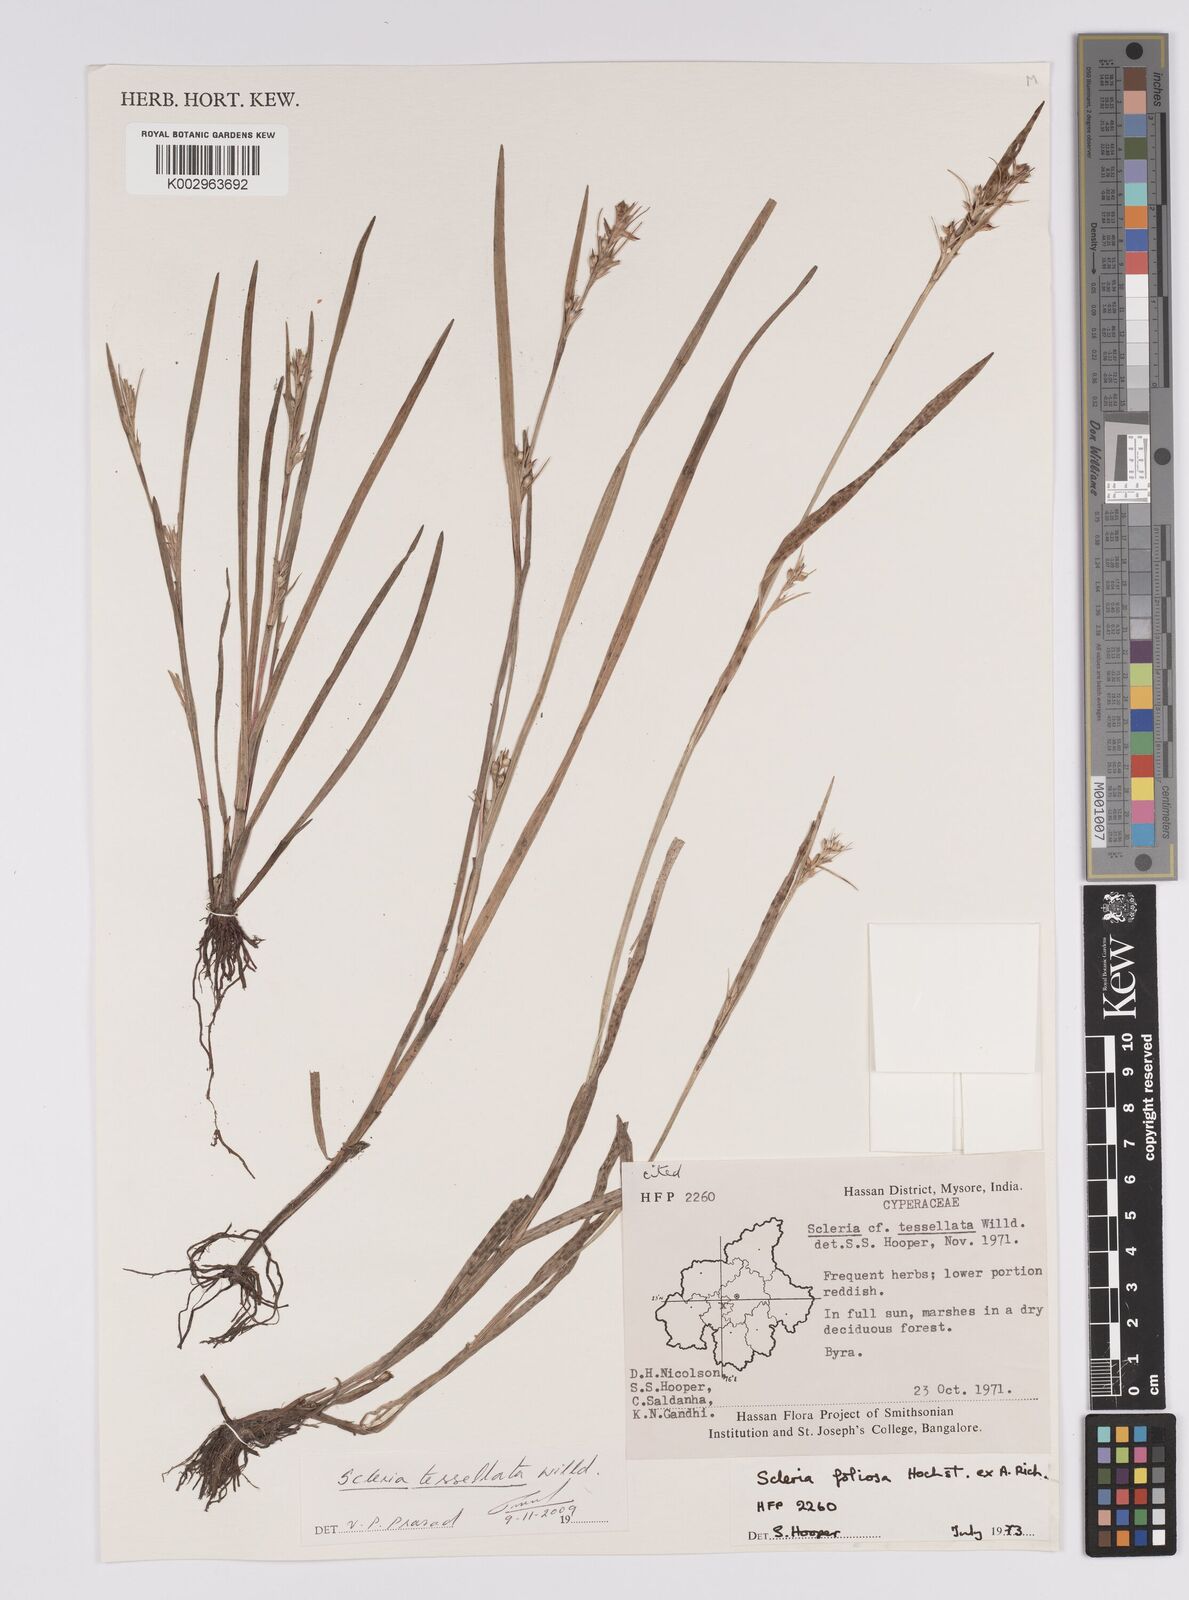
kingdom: Plantae
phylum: Tracheophyta
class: Liliopsida
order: Poales
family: Cyperaceae
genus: Scleria
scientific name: Scleria foliosa
